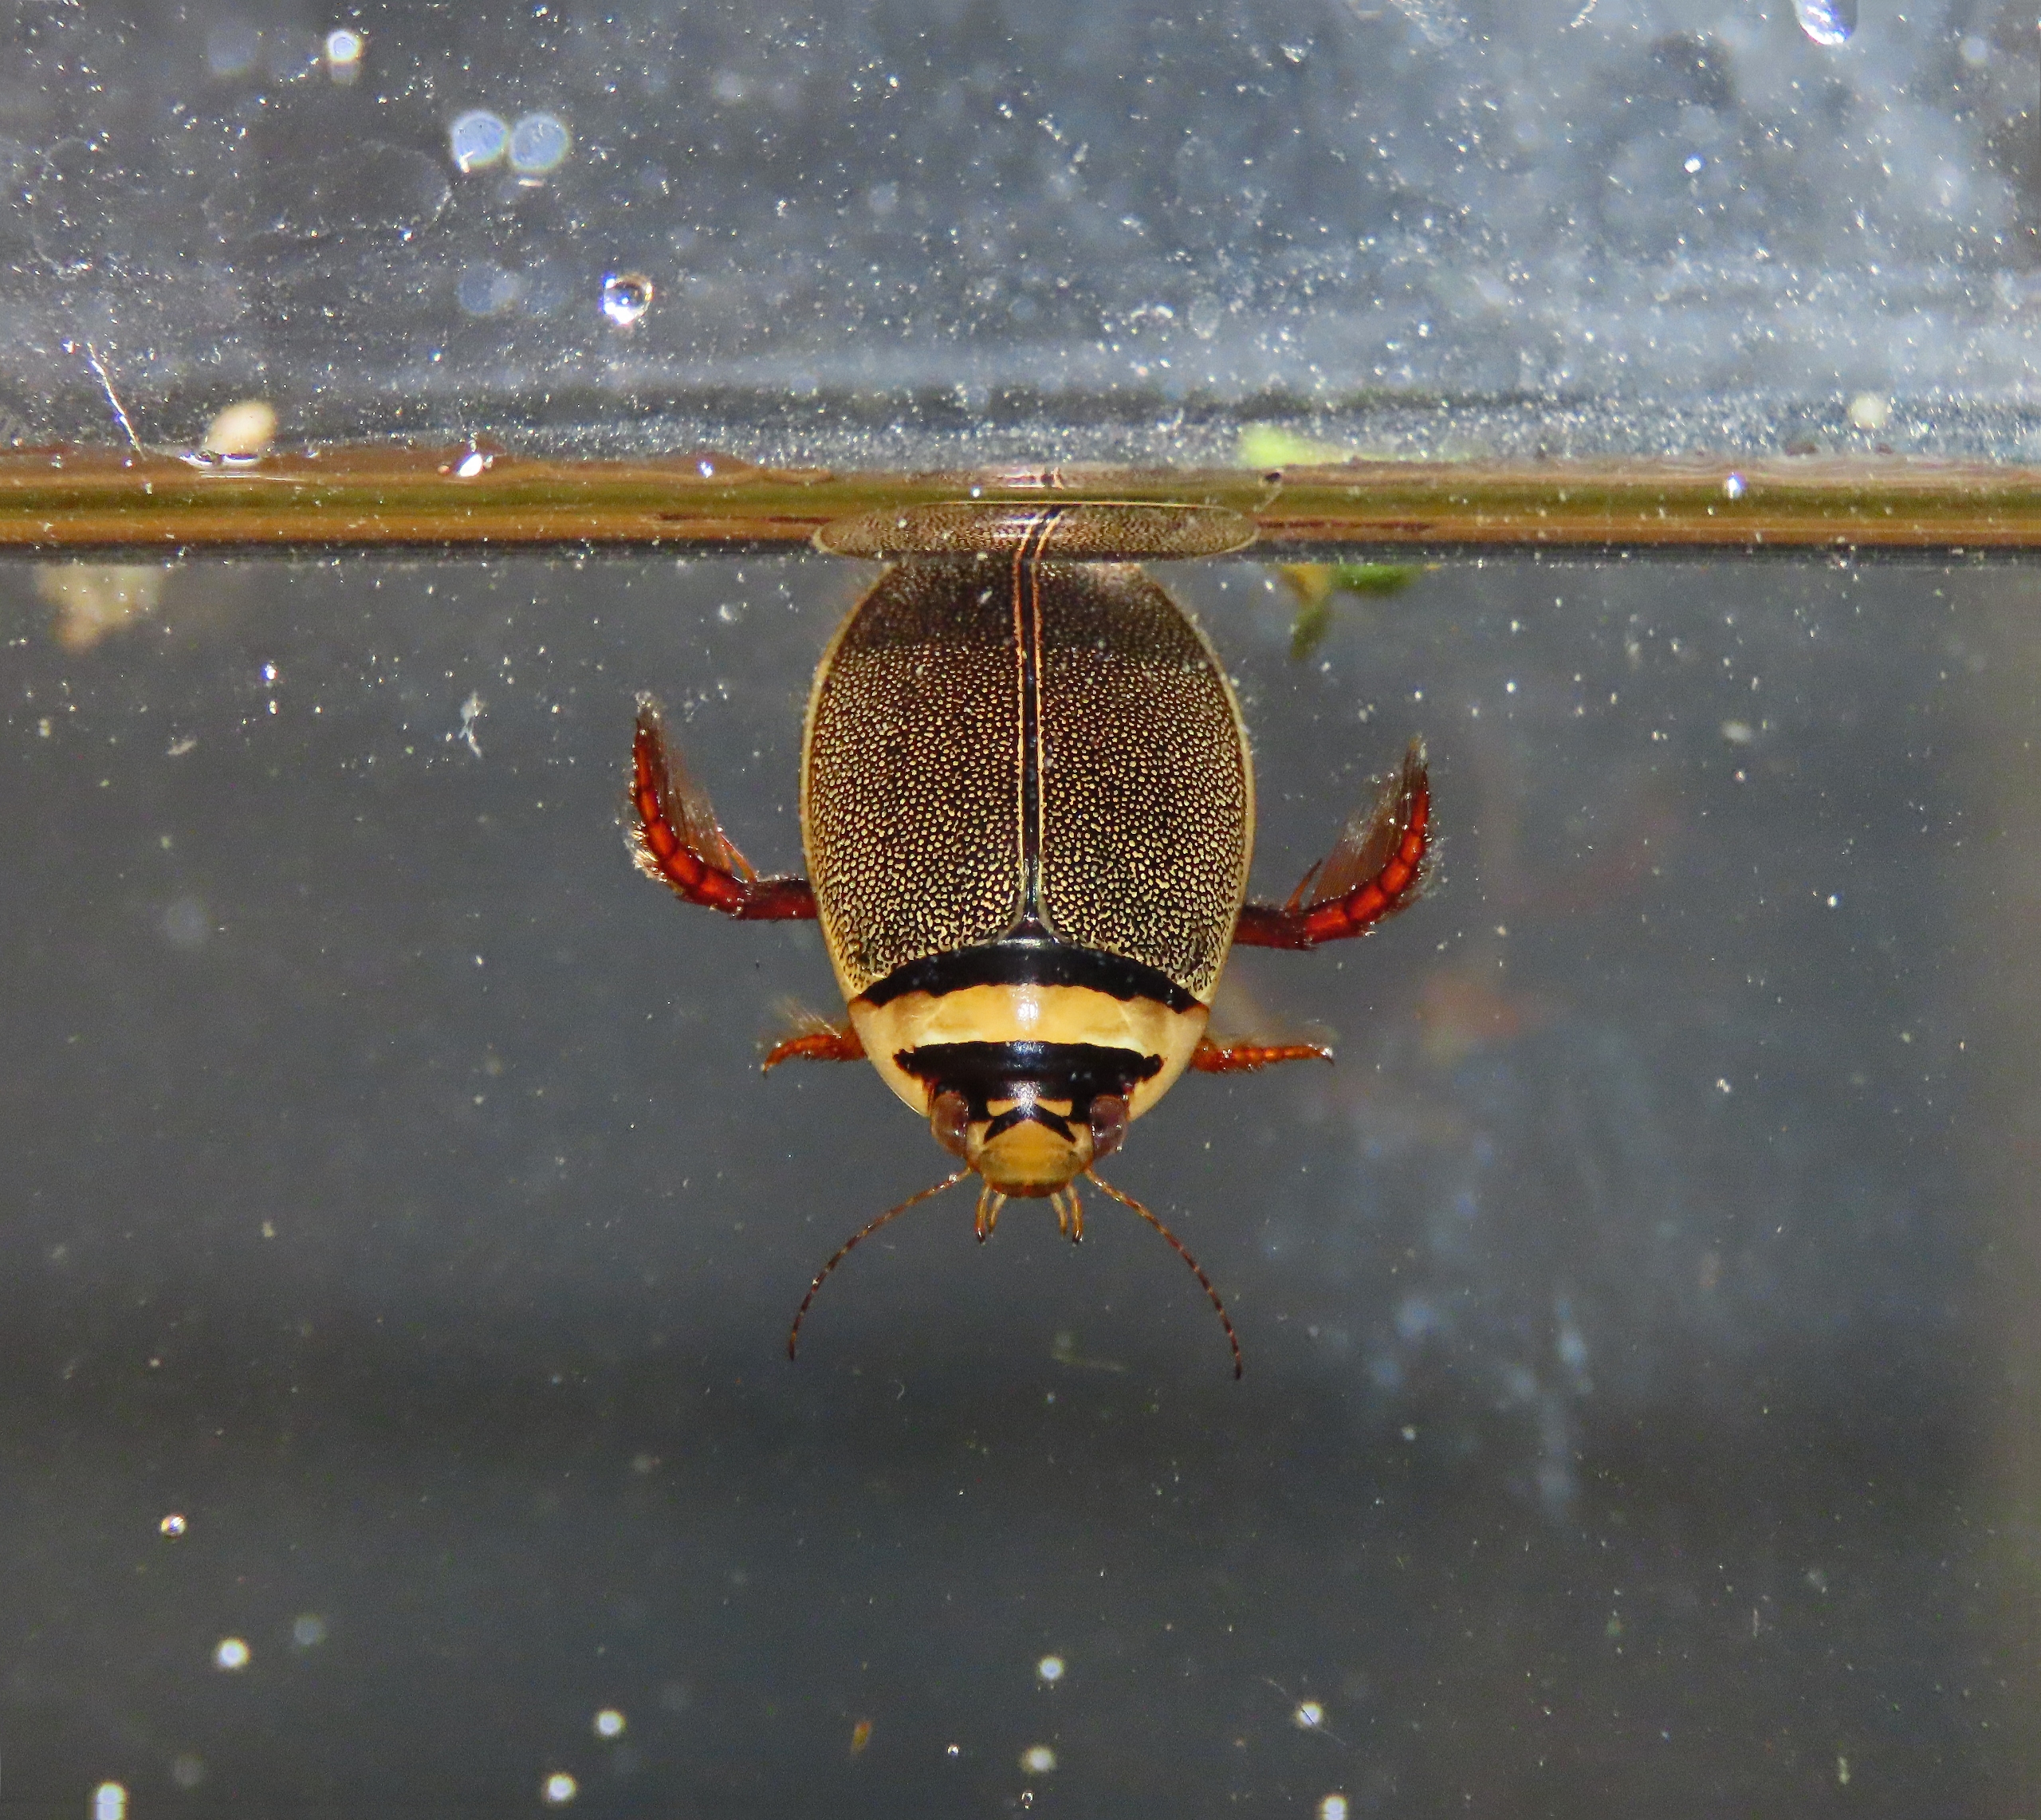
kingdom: Animalia
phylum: Arthropoda
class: Insecta
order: Coleoptera
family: Dytiscidae
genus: Graphoderus
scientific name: Graphoderus cinereus
